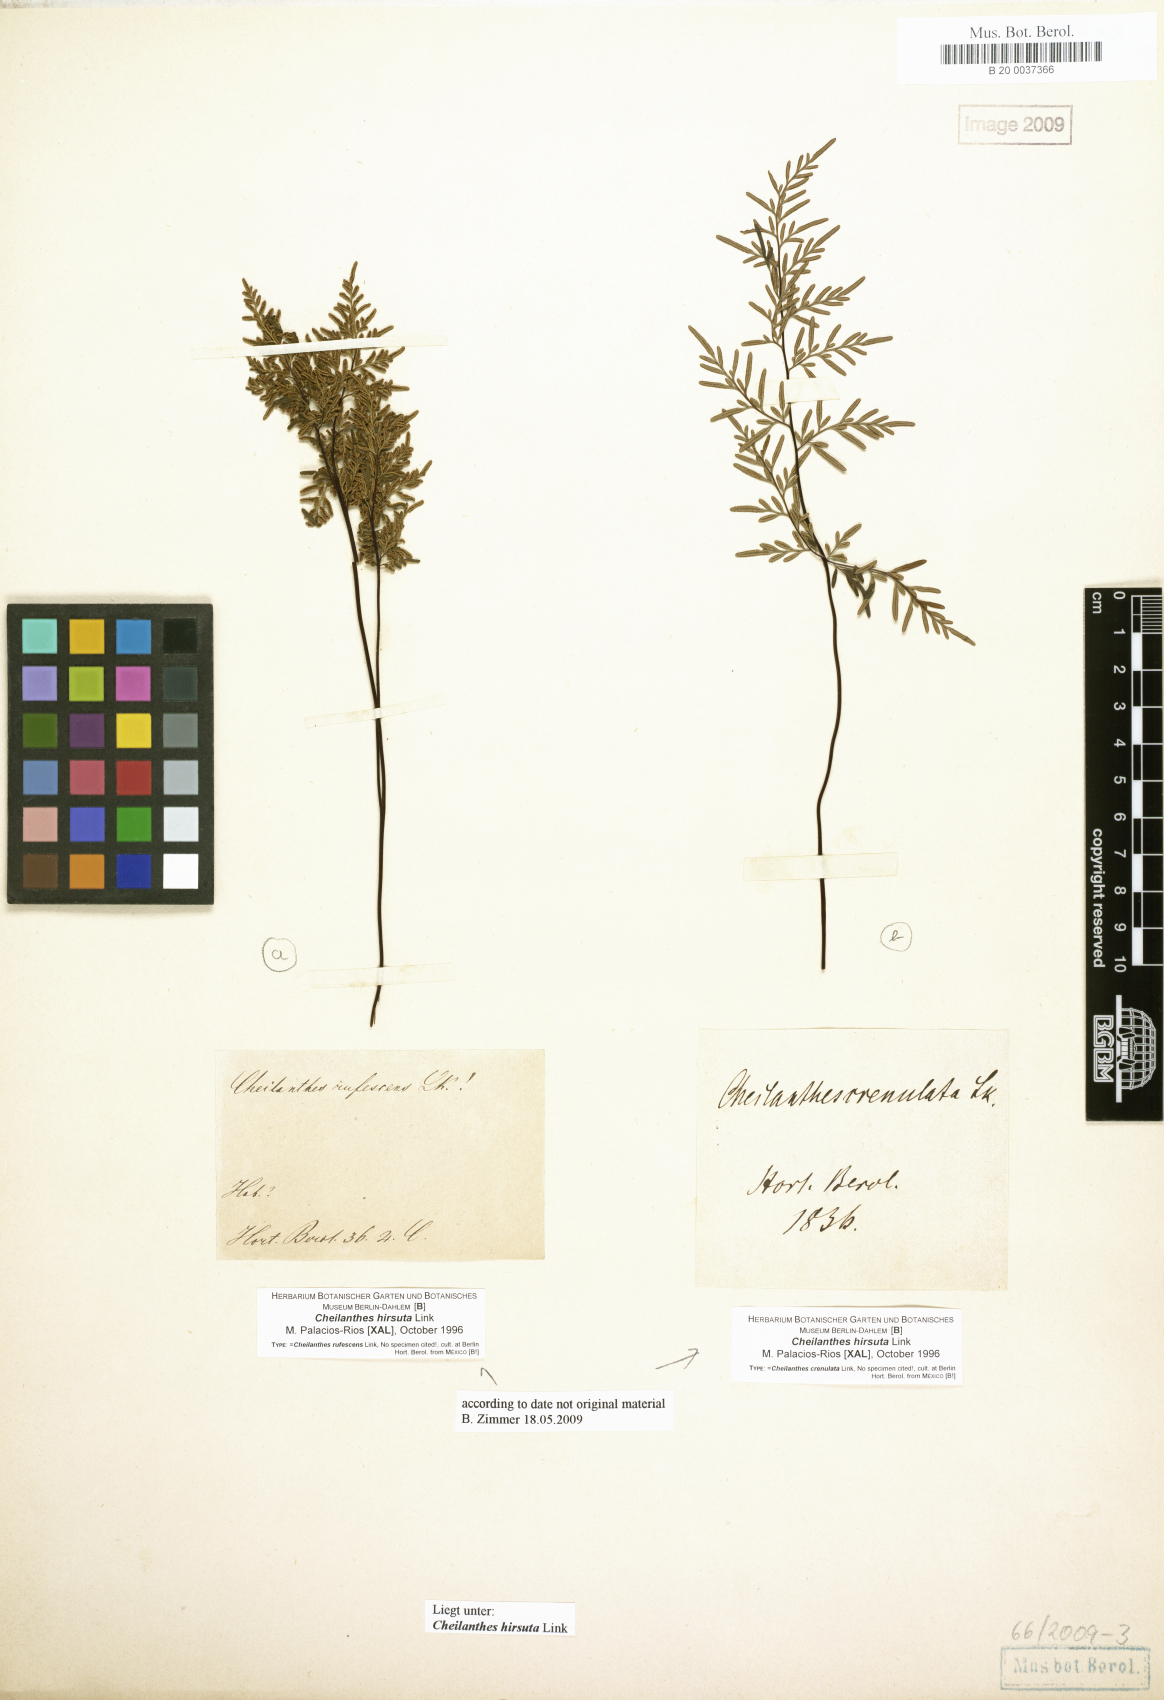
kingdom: Plantae
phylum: Tracheophyta
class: Polypodiopsida
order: Polypodiales
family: Pteridaceae
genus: Gaga
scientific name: Gaga hirsuta
